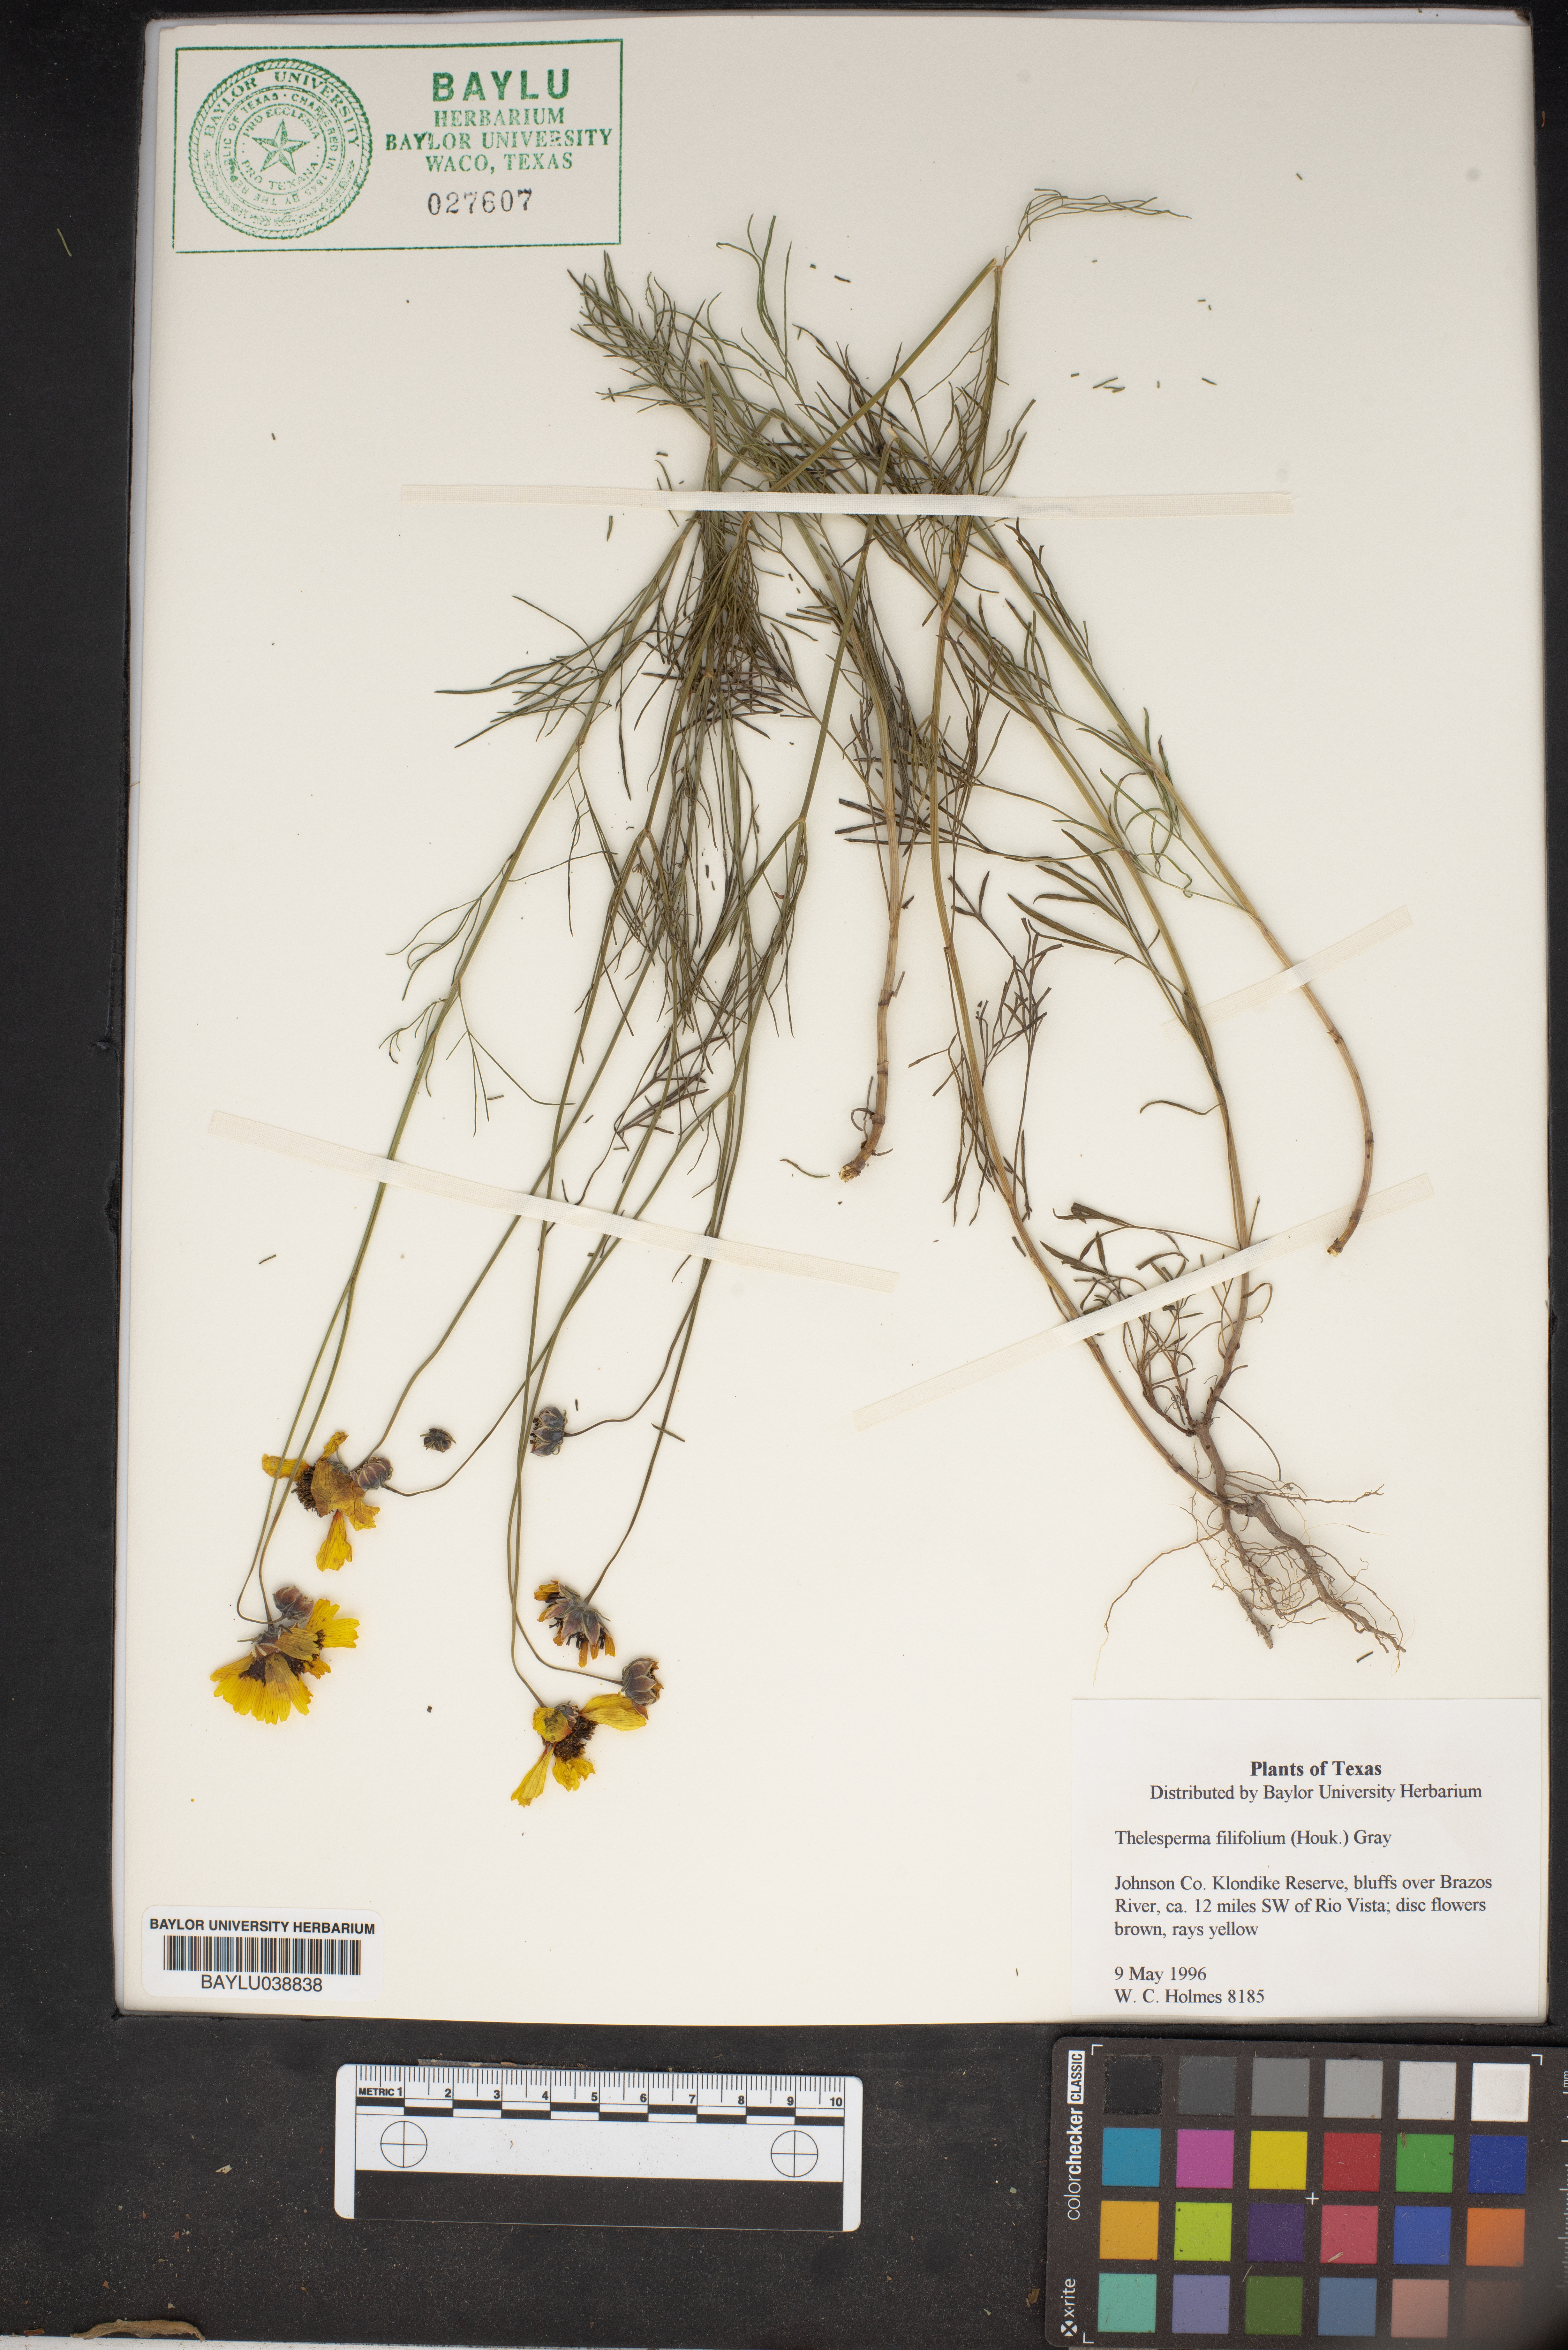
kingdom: Plantae
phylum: Tracheophyta
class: Magnoliopsida
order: Asterales
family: Asteraceae
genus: Thelesperma
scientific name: Thelesperma filifolium
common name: Stiff greenthread
